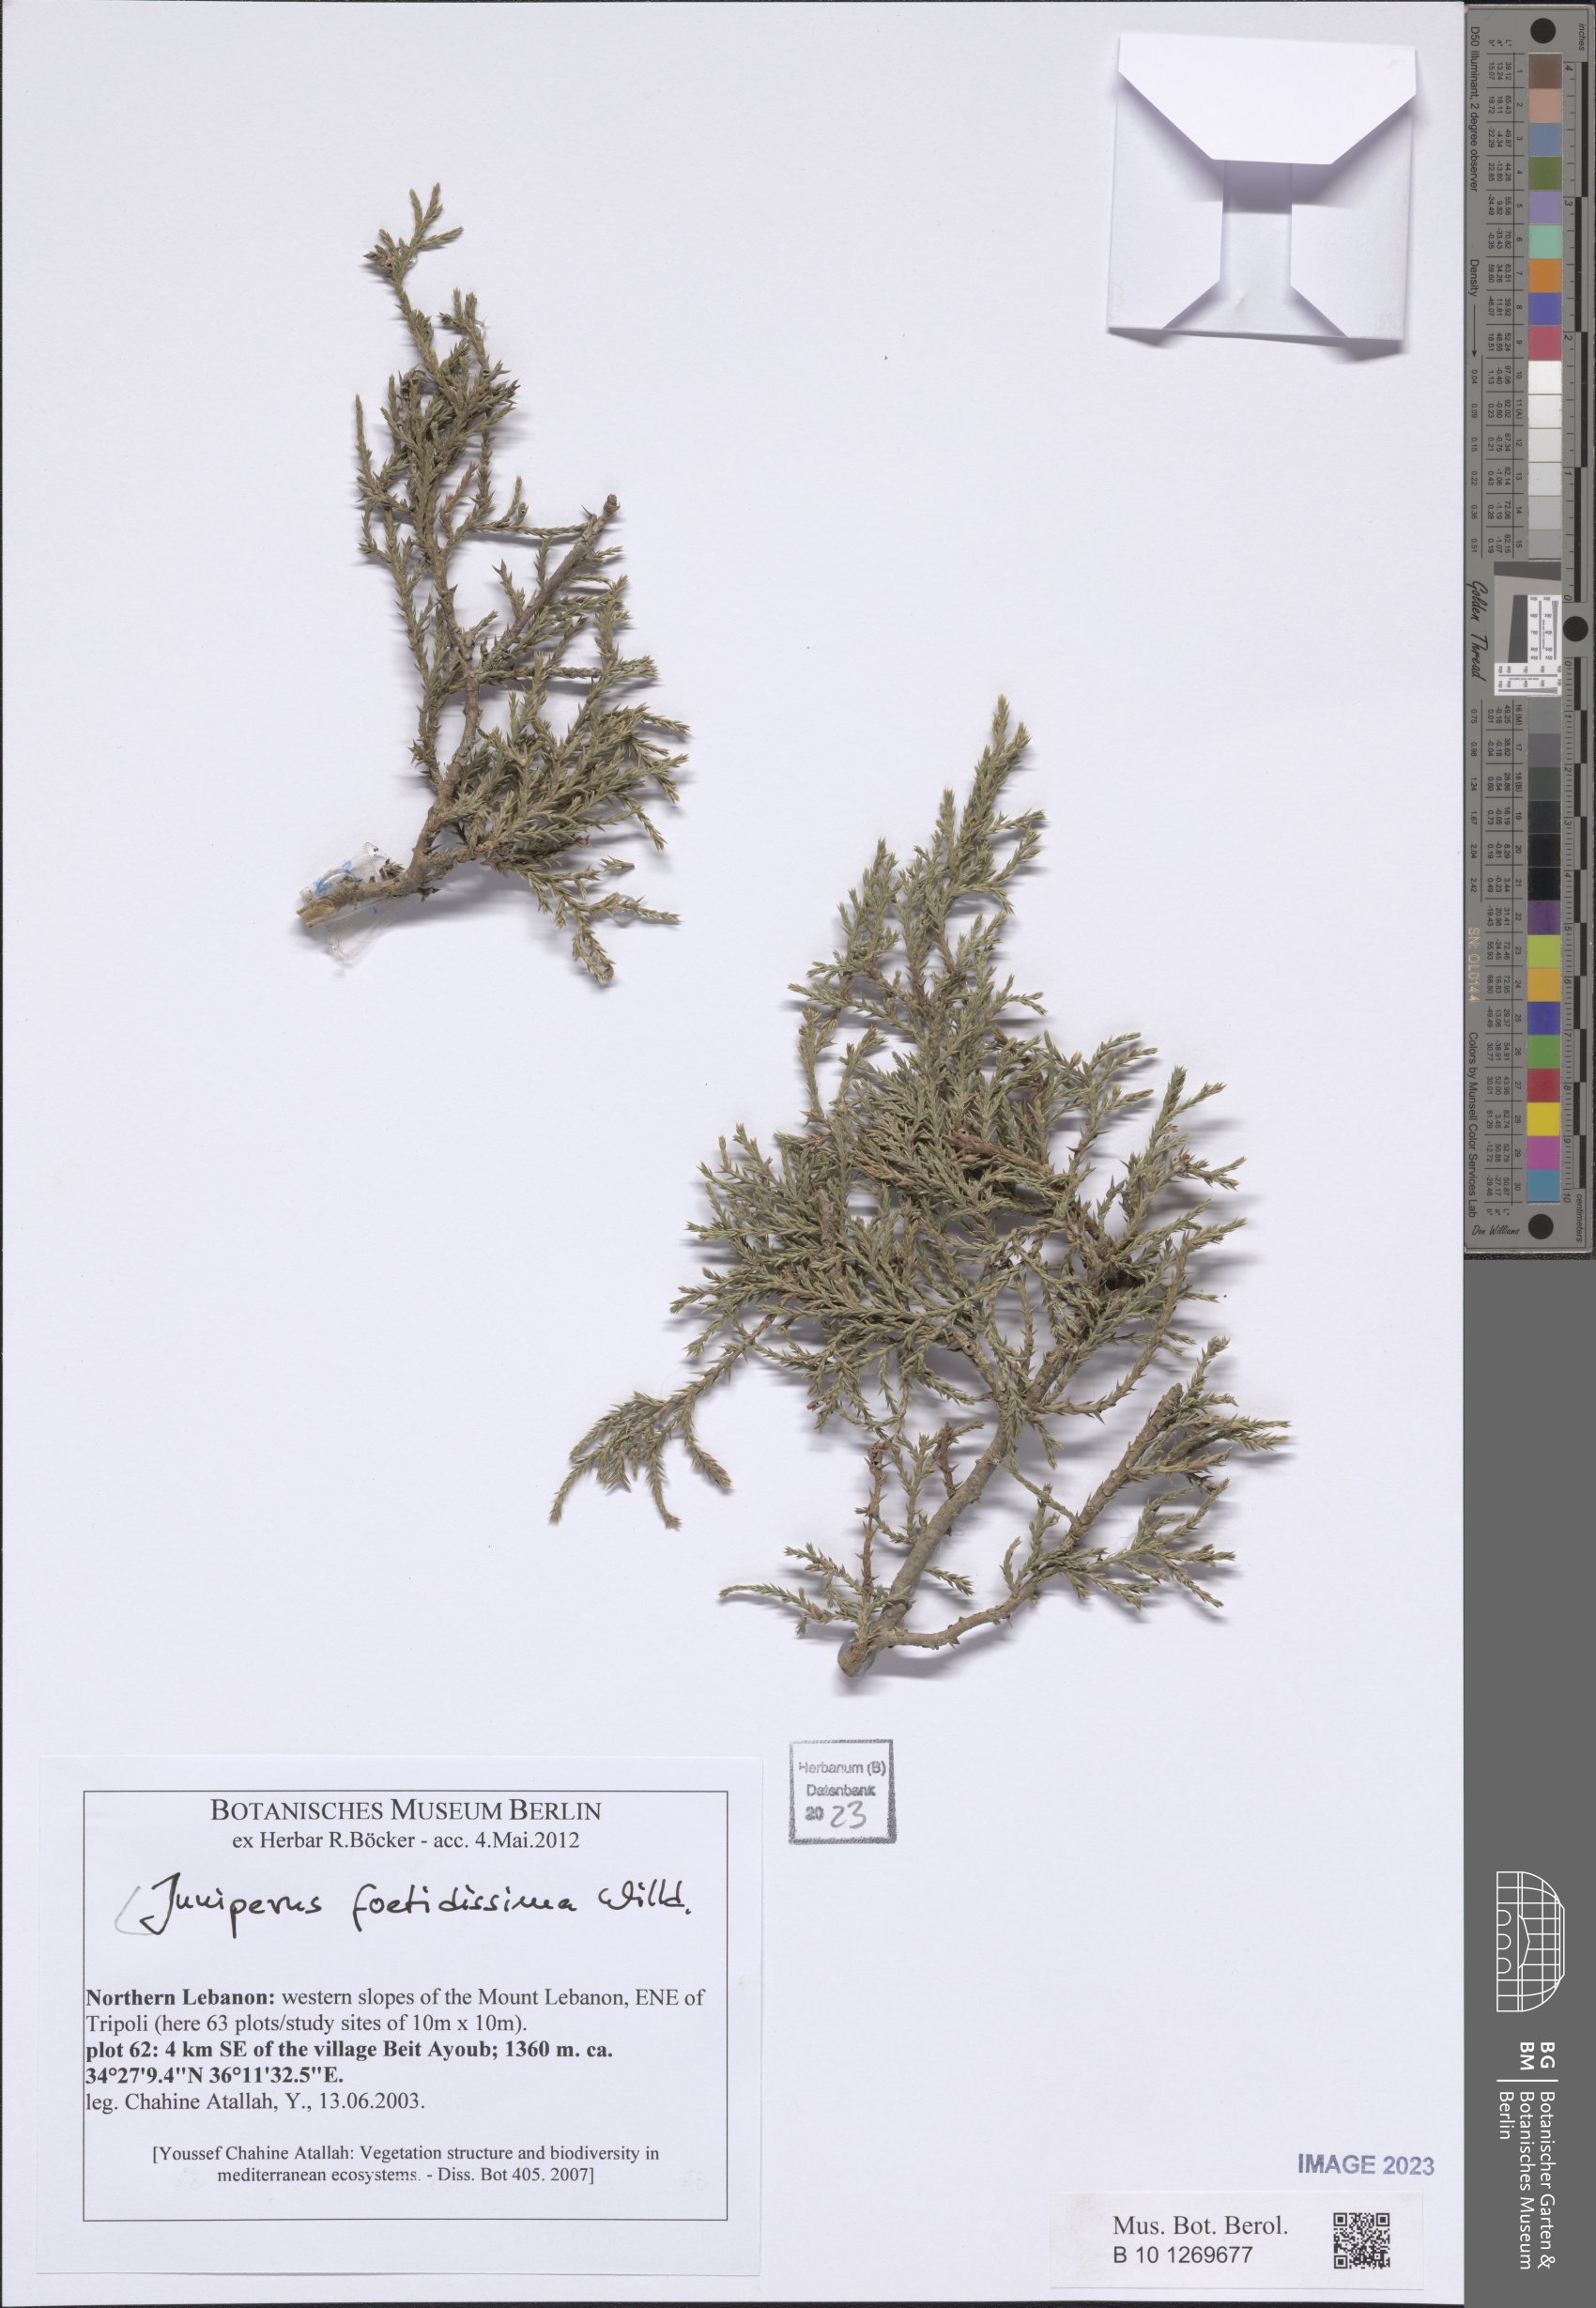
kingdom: Plantae
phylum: Tracheophyta
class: Pinopsida
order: Pinales
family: Cupressaceae
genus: Juniperus
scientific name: Juniperus foetidissima
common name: Stinking juniper
